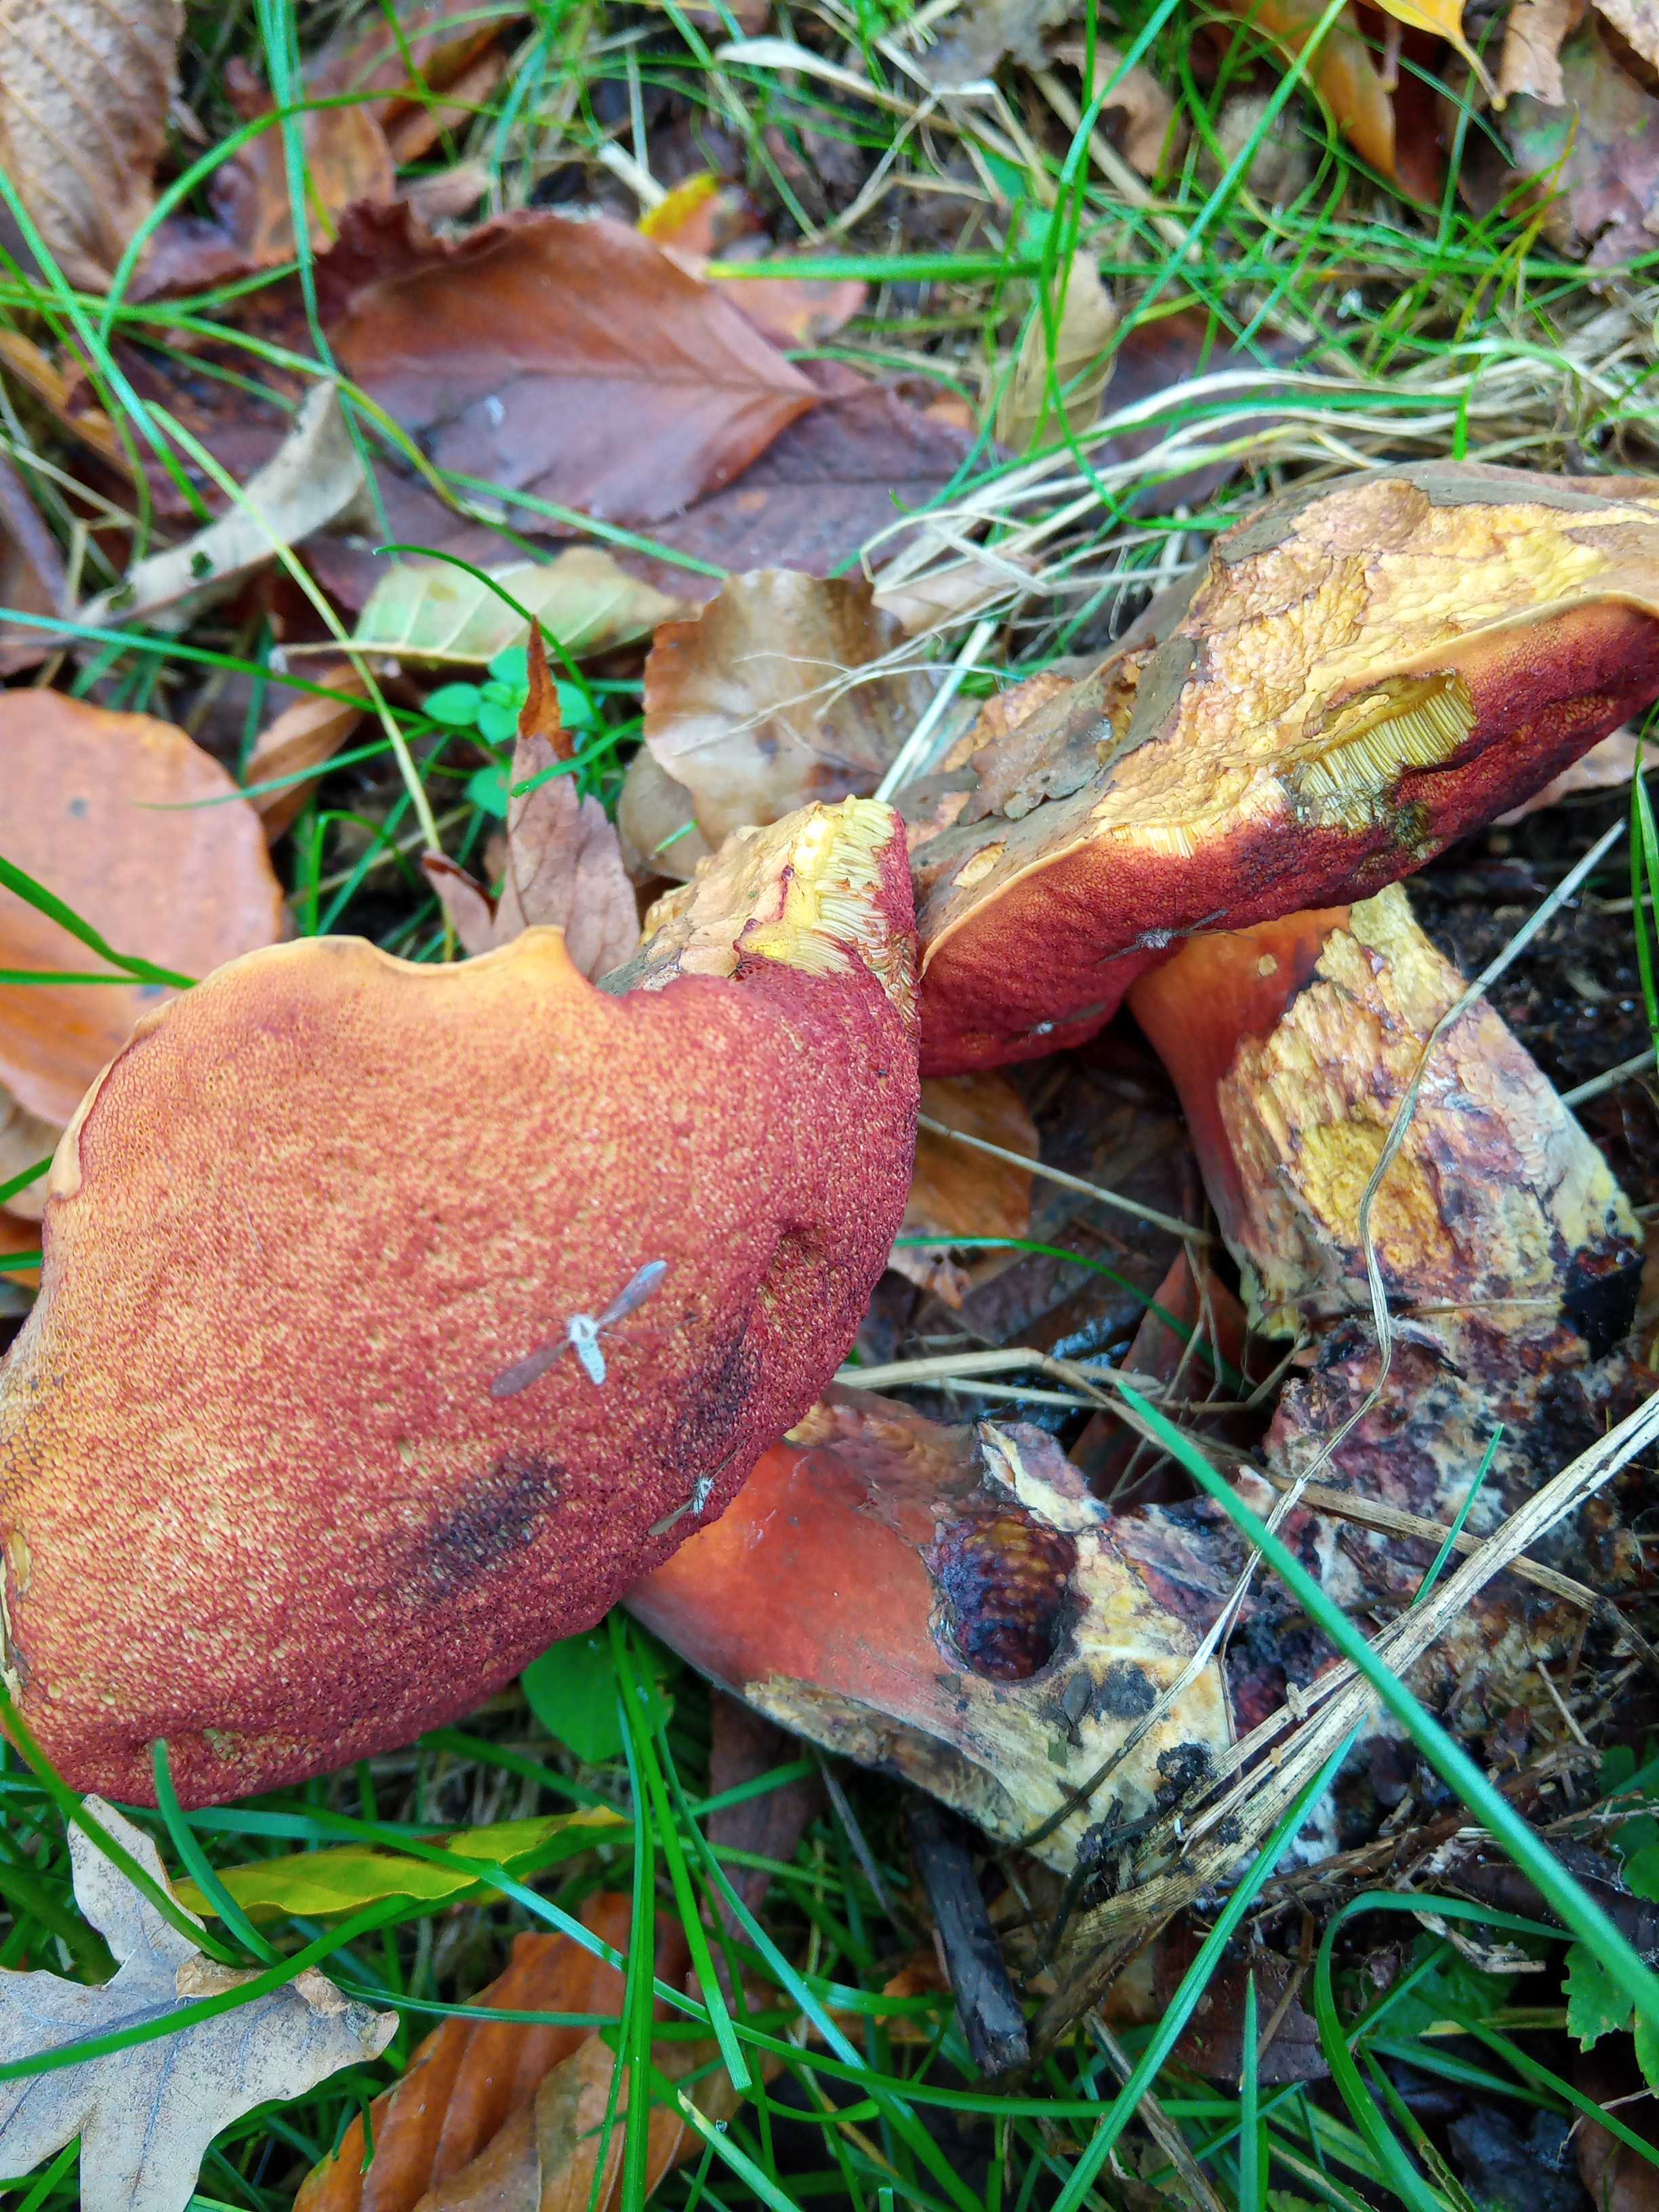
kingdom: Fungi
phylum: Basidiomycota
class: Agaricomycetes
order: Boletales
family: Boletaceae
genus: Neoboletus
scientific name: Neoboletus erythropus
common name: punktstokket indigorørhat
